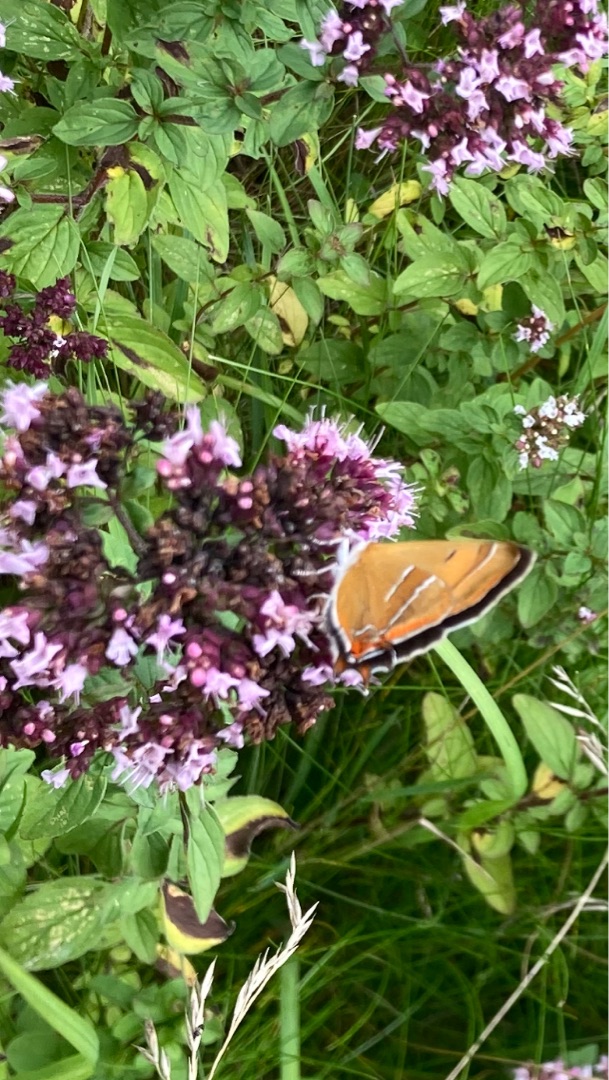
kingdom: Animalia
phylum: Arthropoda
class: Insecta
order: Lepidoptera
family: Lycaenidae
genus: Thecla
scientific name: Thecla betulae
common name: Guldhale
